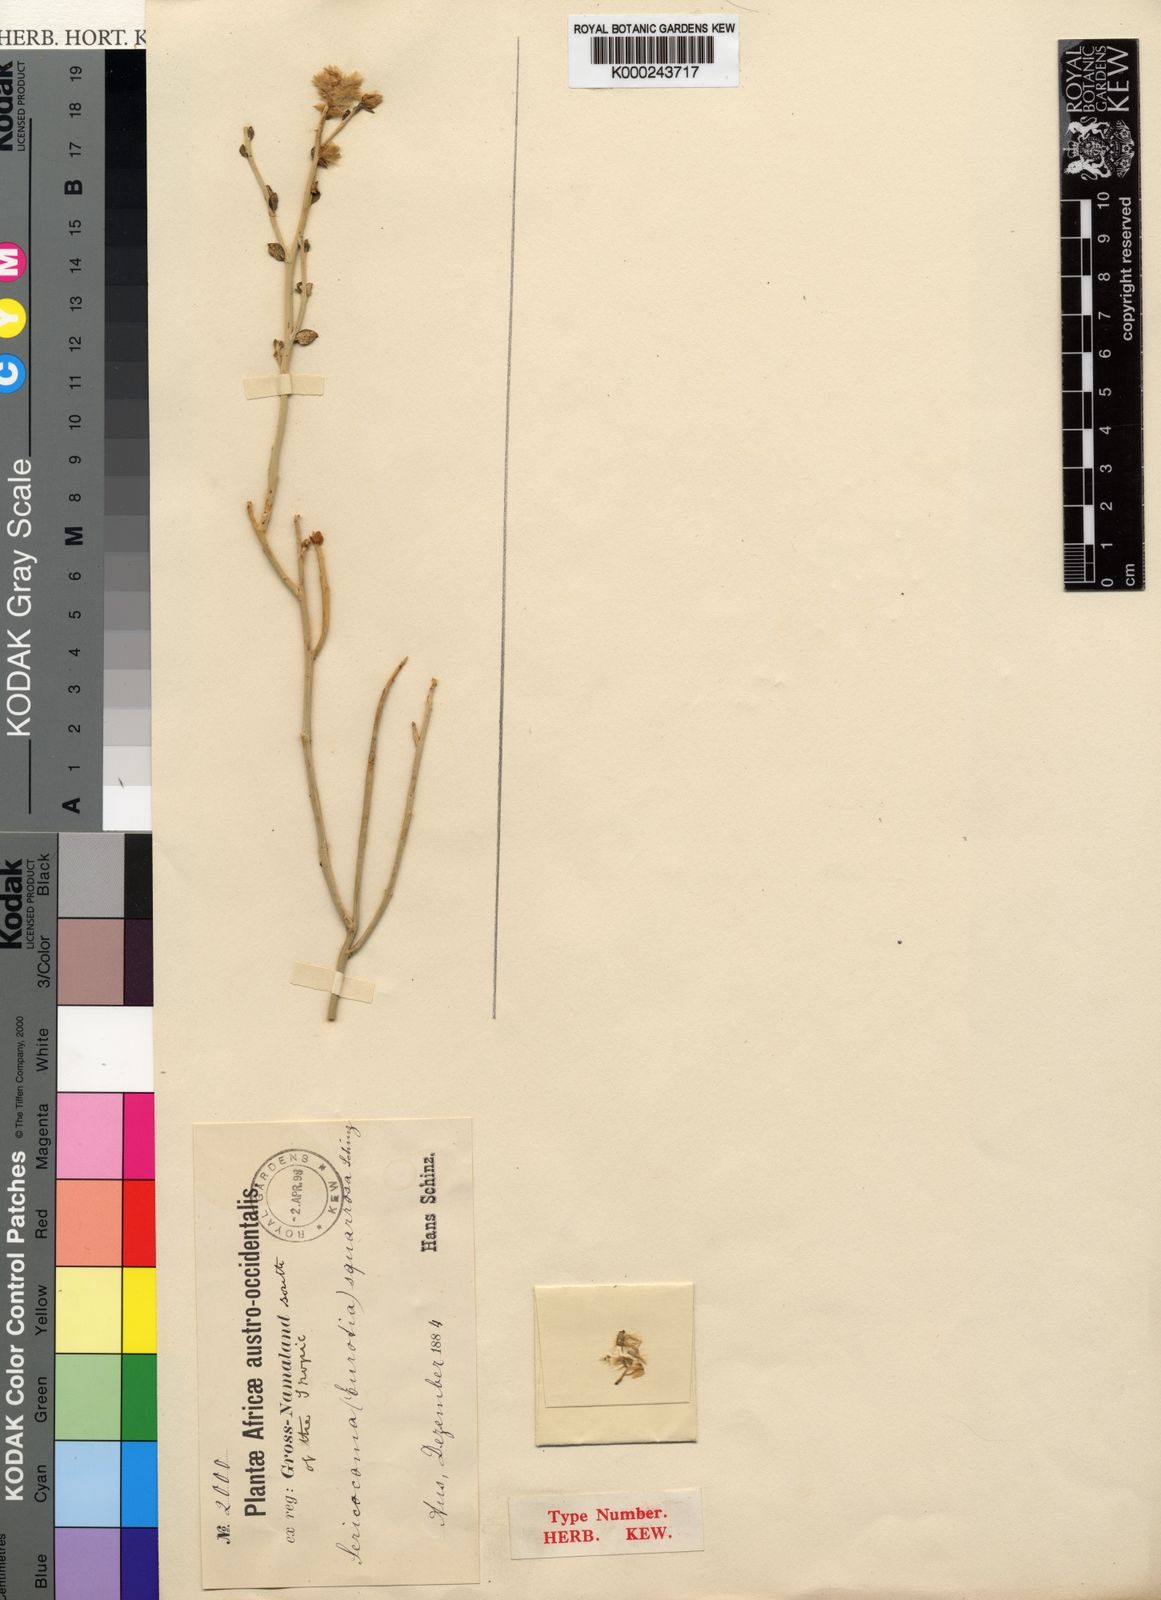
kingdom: Plantae
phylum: Tracheophyta
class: Magnoliopsida
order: Caryophyllales
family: Amaranthaceae
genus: Calicorema
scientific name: Calicorema squarrosa
